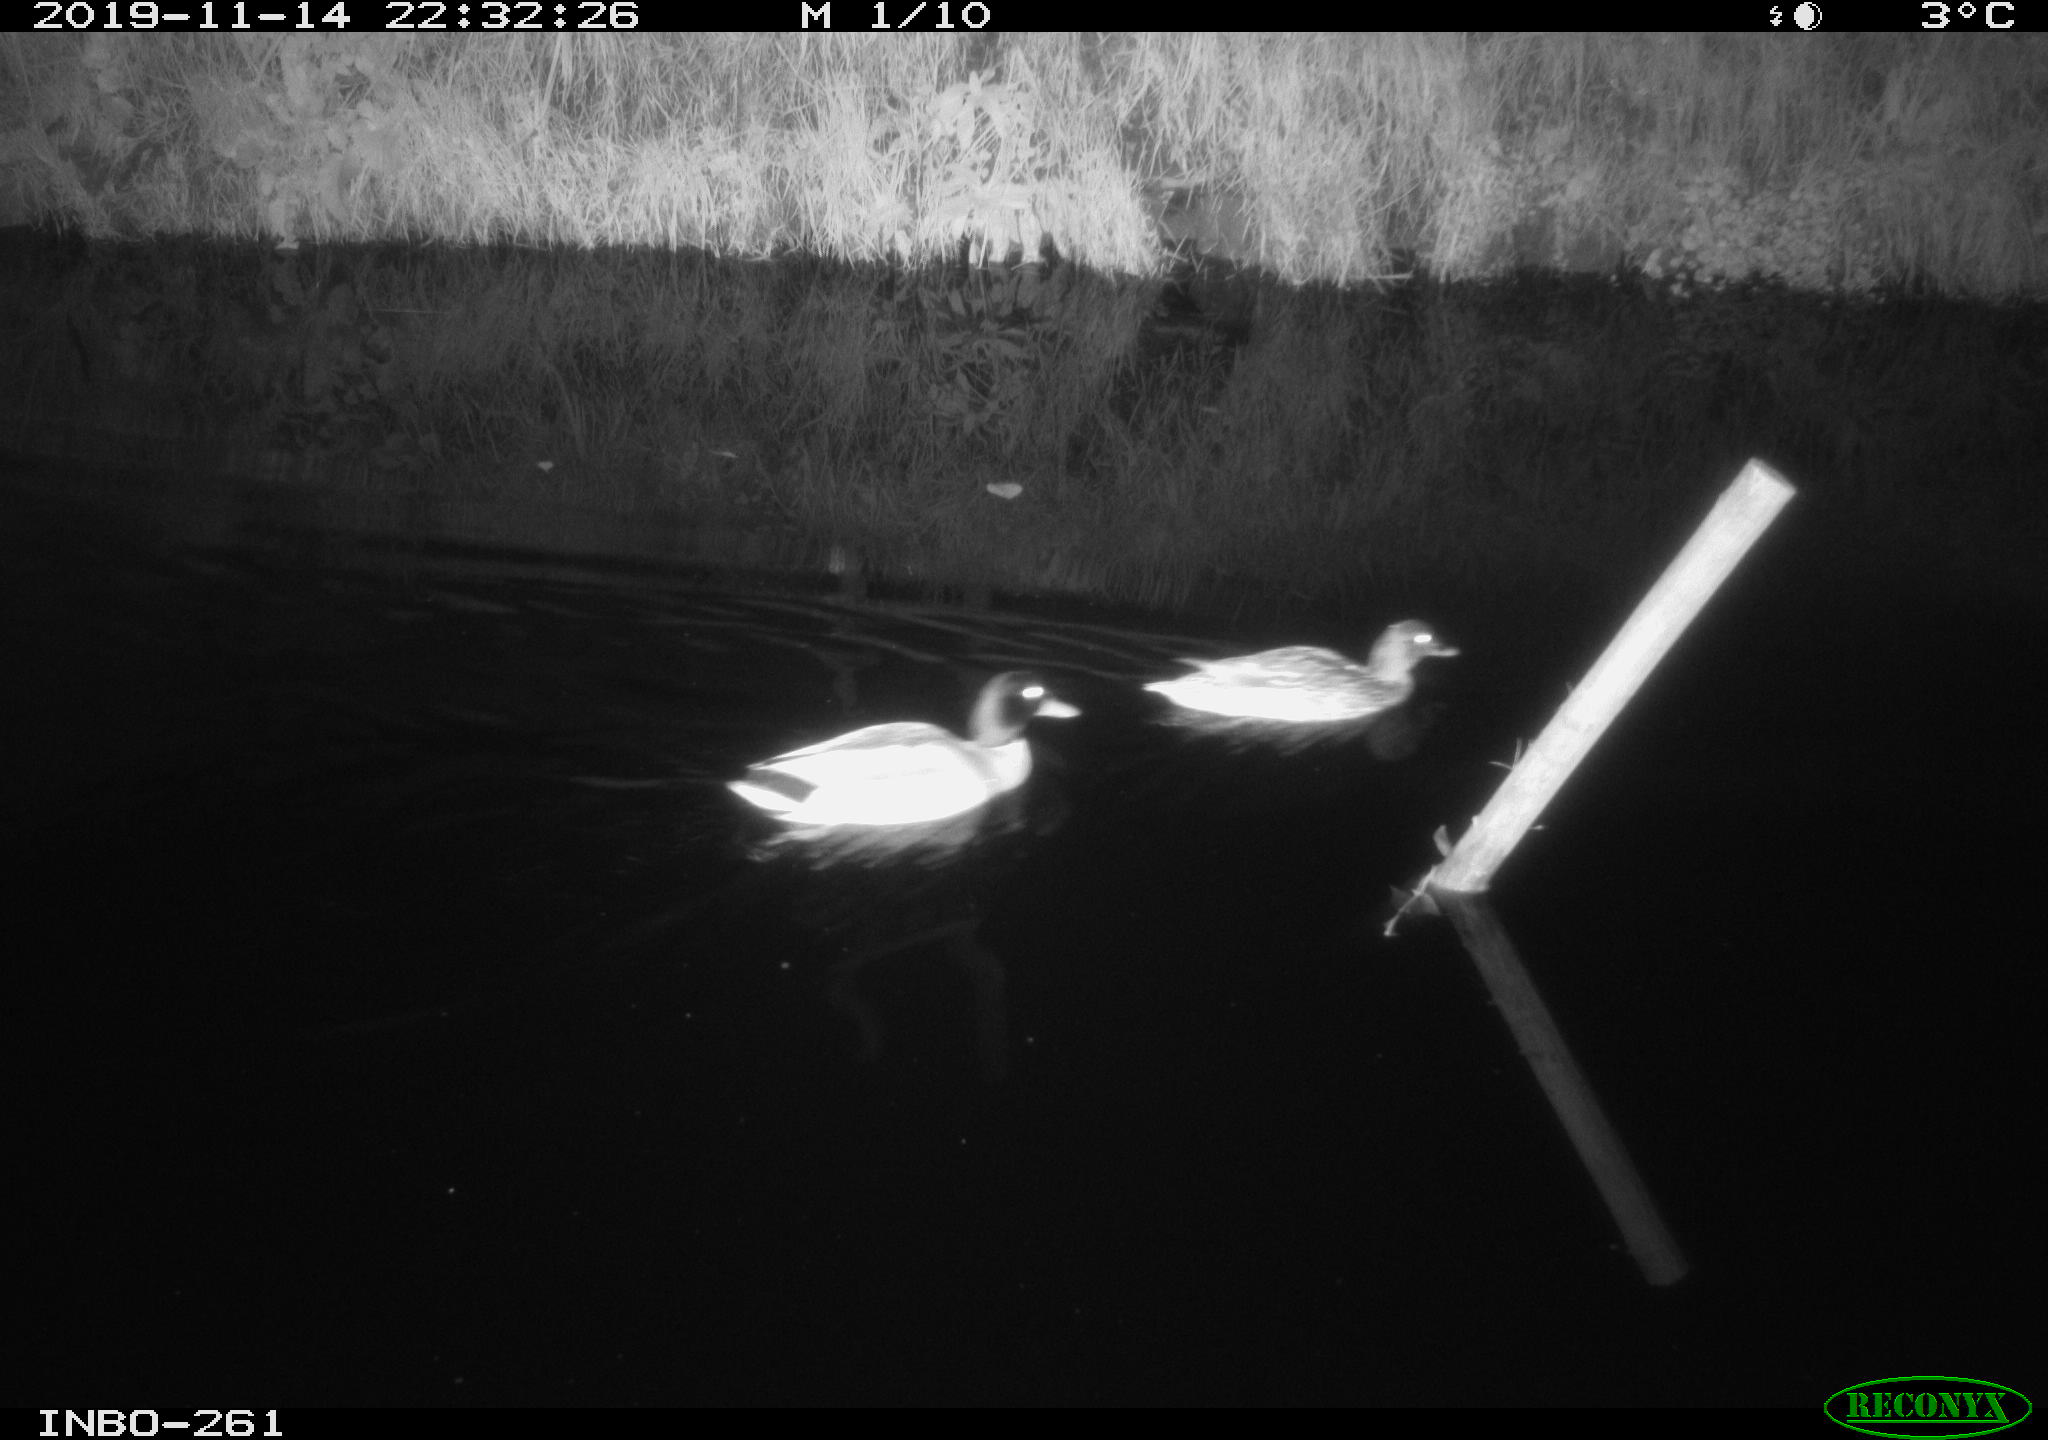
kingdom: Animalia
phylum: Chordata
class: Aves
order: Anseriformes
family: Anatidae
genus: Anas
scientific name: Anas platyrhynchos
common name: Mallard
